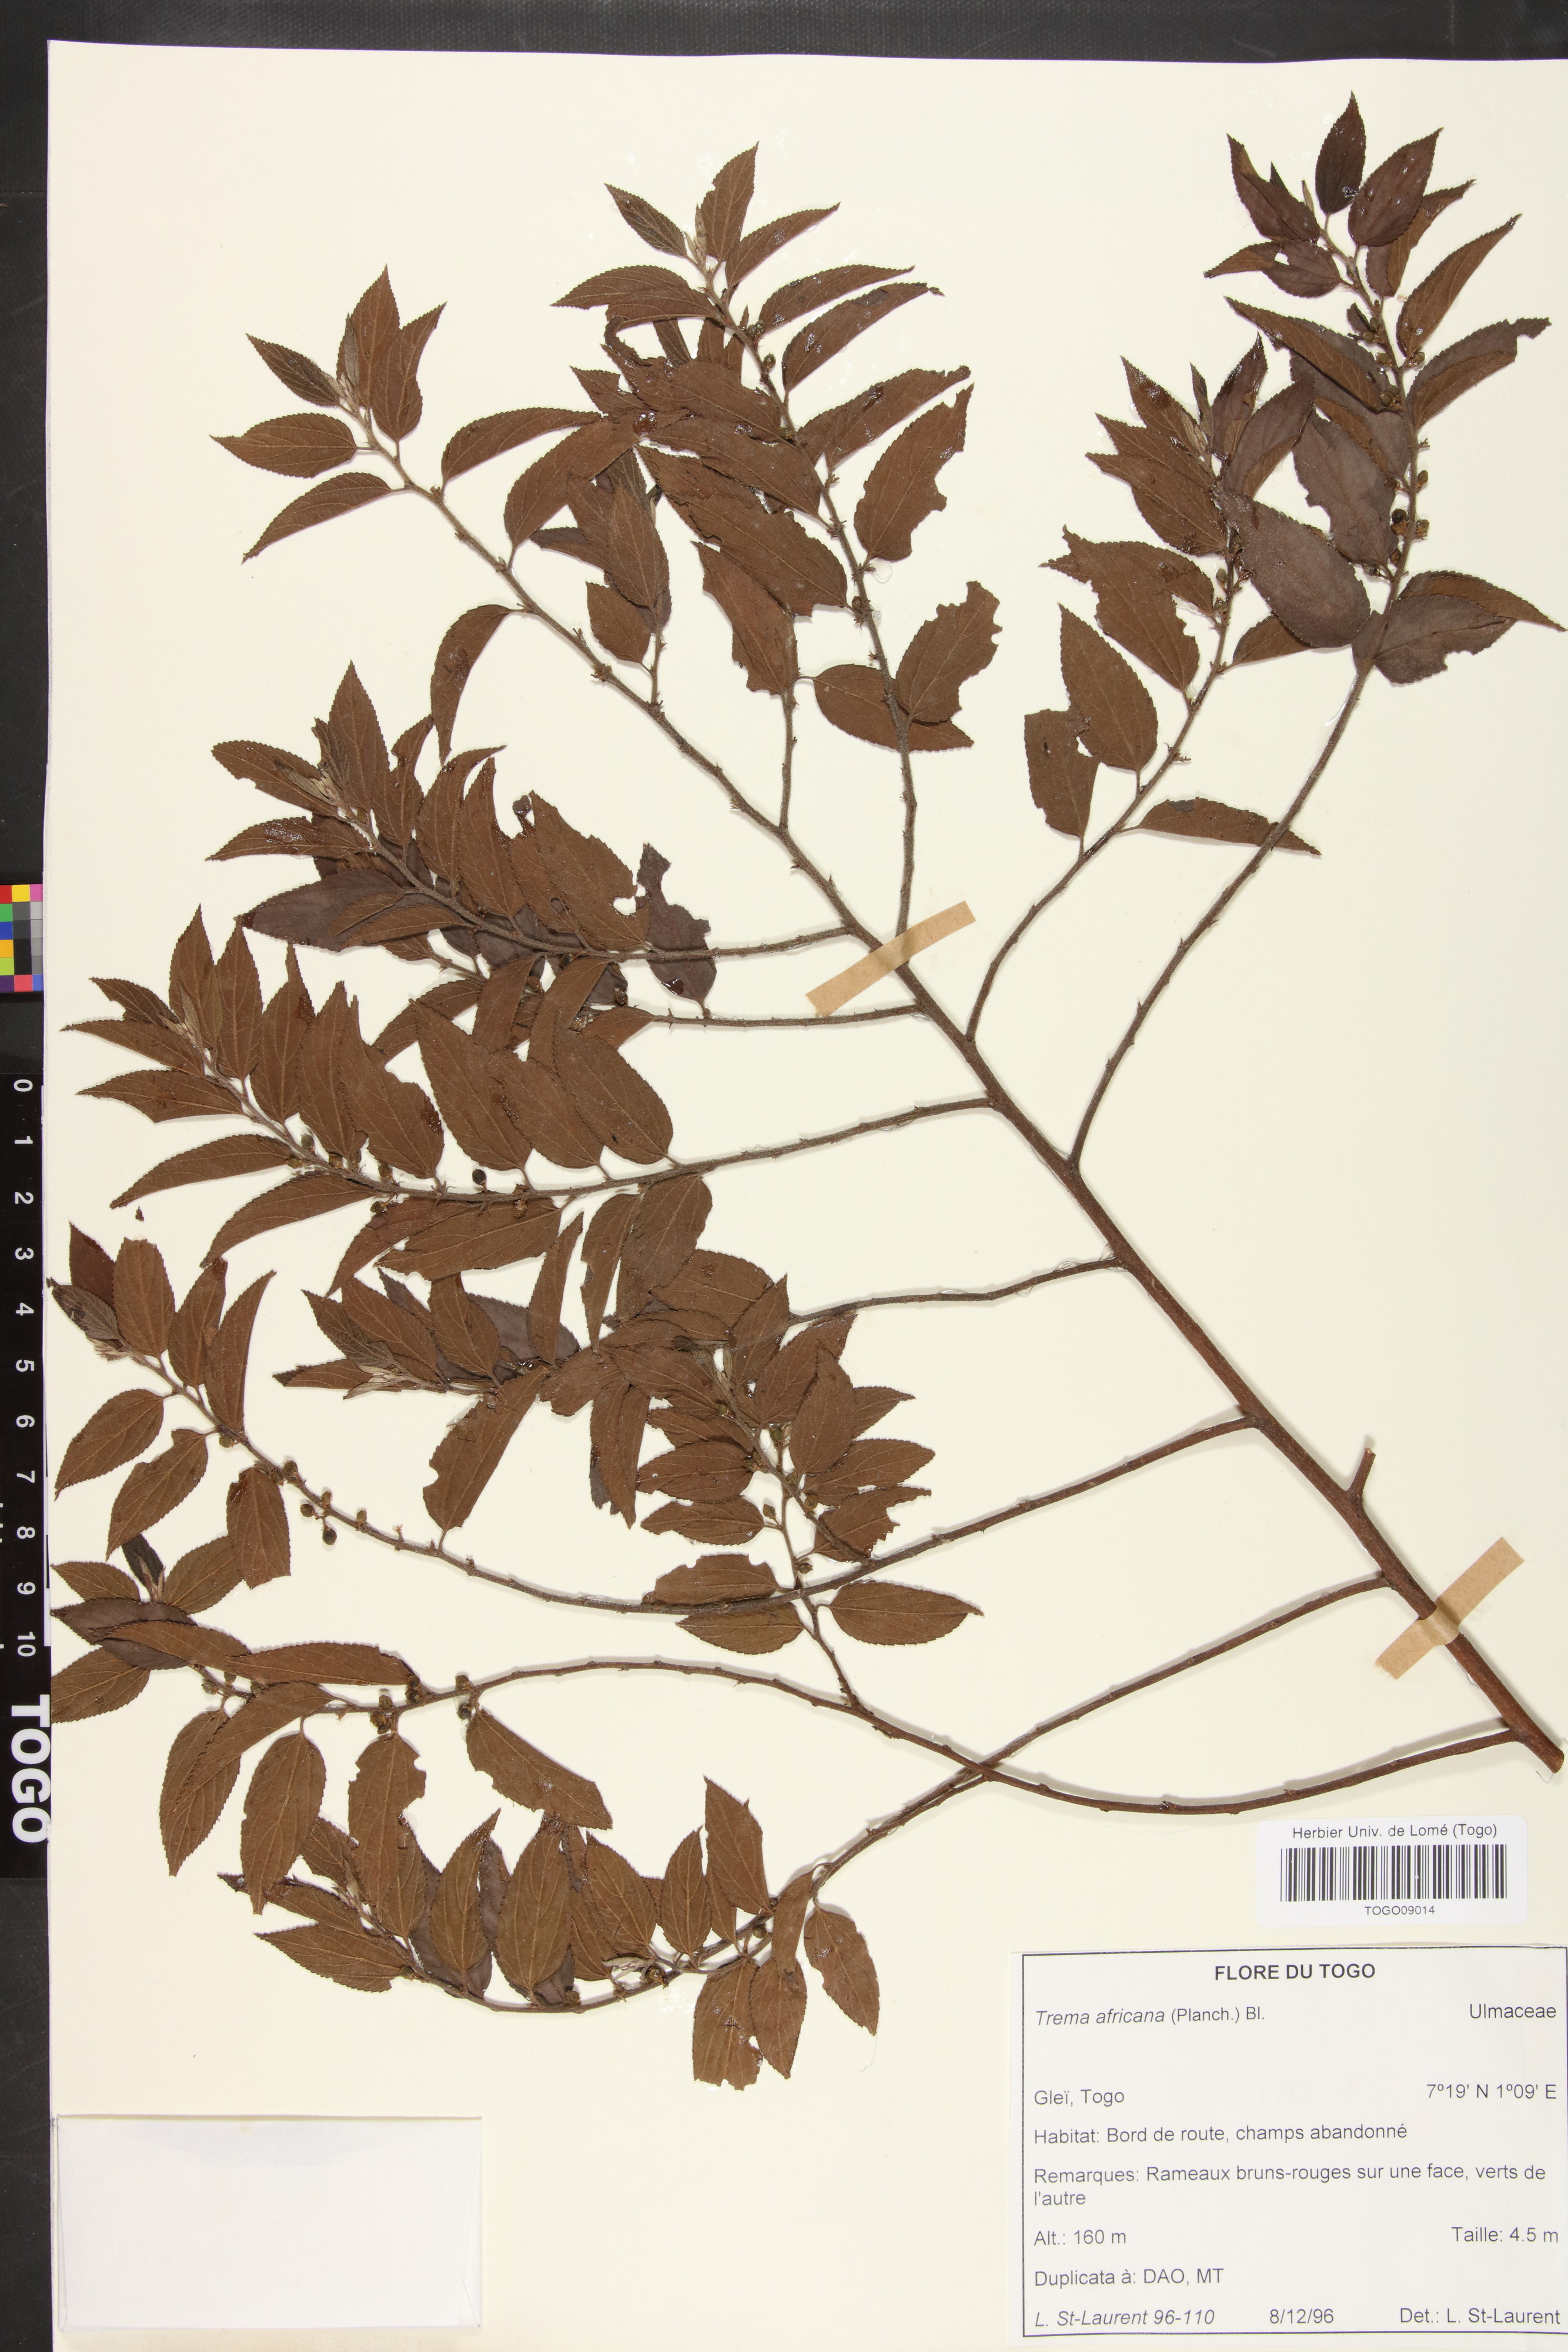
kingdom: Plantae
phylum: Tracheophyta
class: Magnoliopsida
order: Rosales
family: Cannabaceae
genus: Trema
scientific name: Trema orientale
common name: Indian charcoal tree
